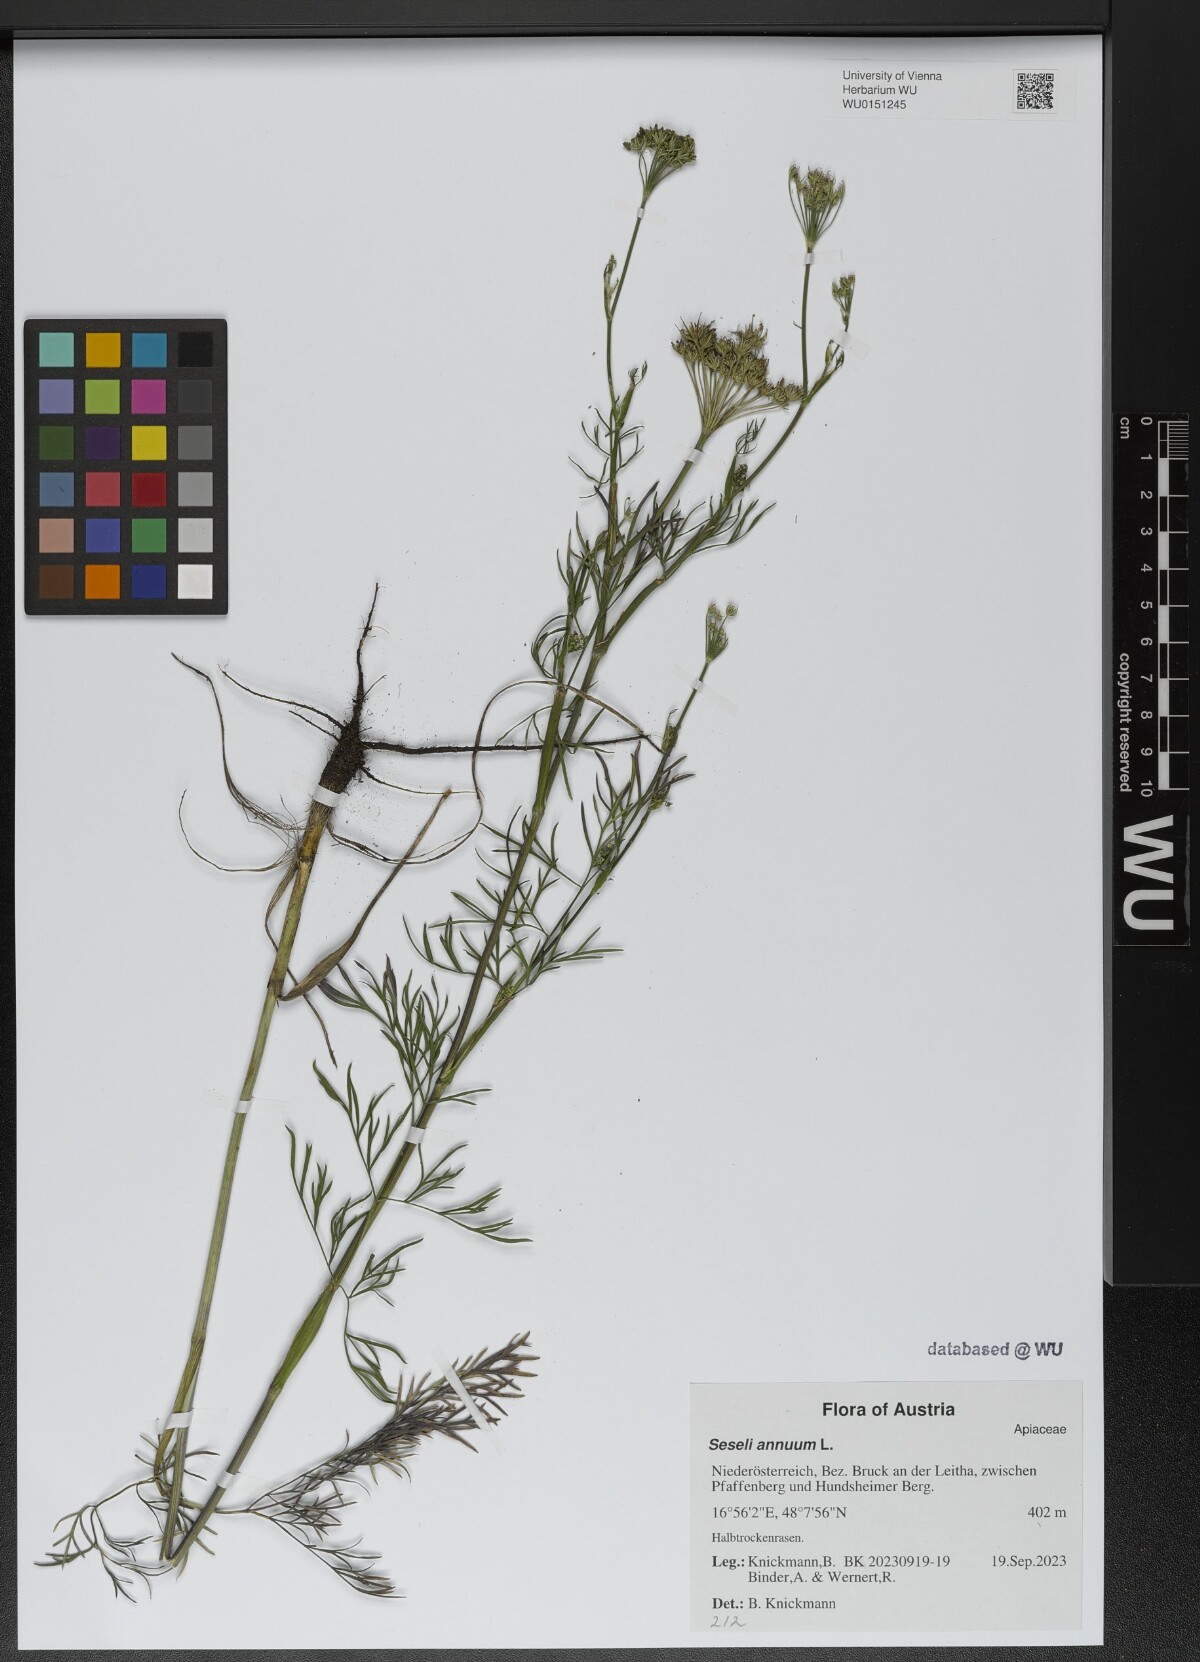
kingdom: Plantae
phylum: Tracheophyta
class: Magnoliopsida
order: Apiales
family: Apiaceae
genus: Seseli
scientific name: Seseli annuum
